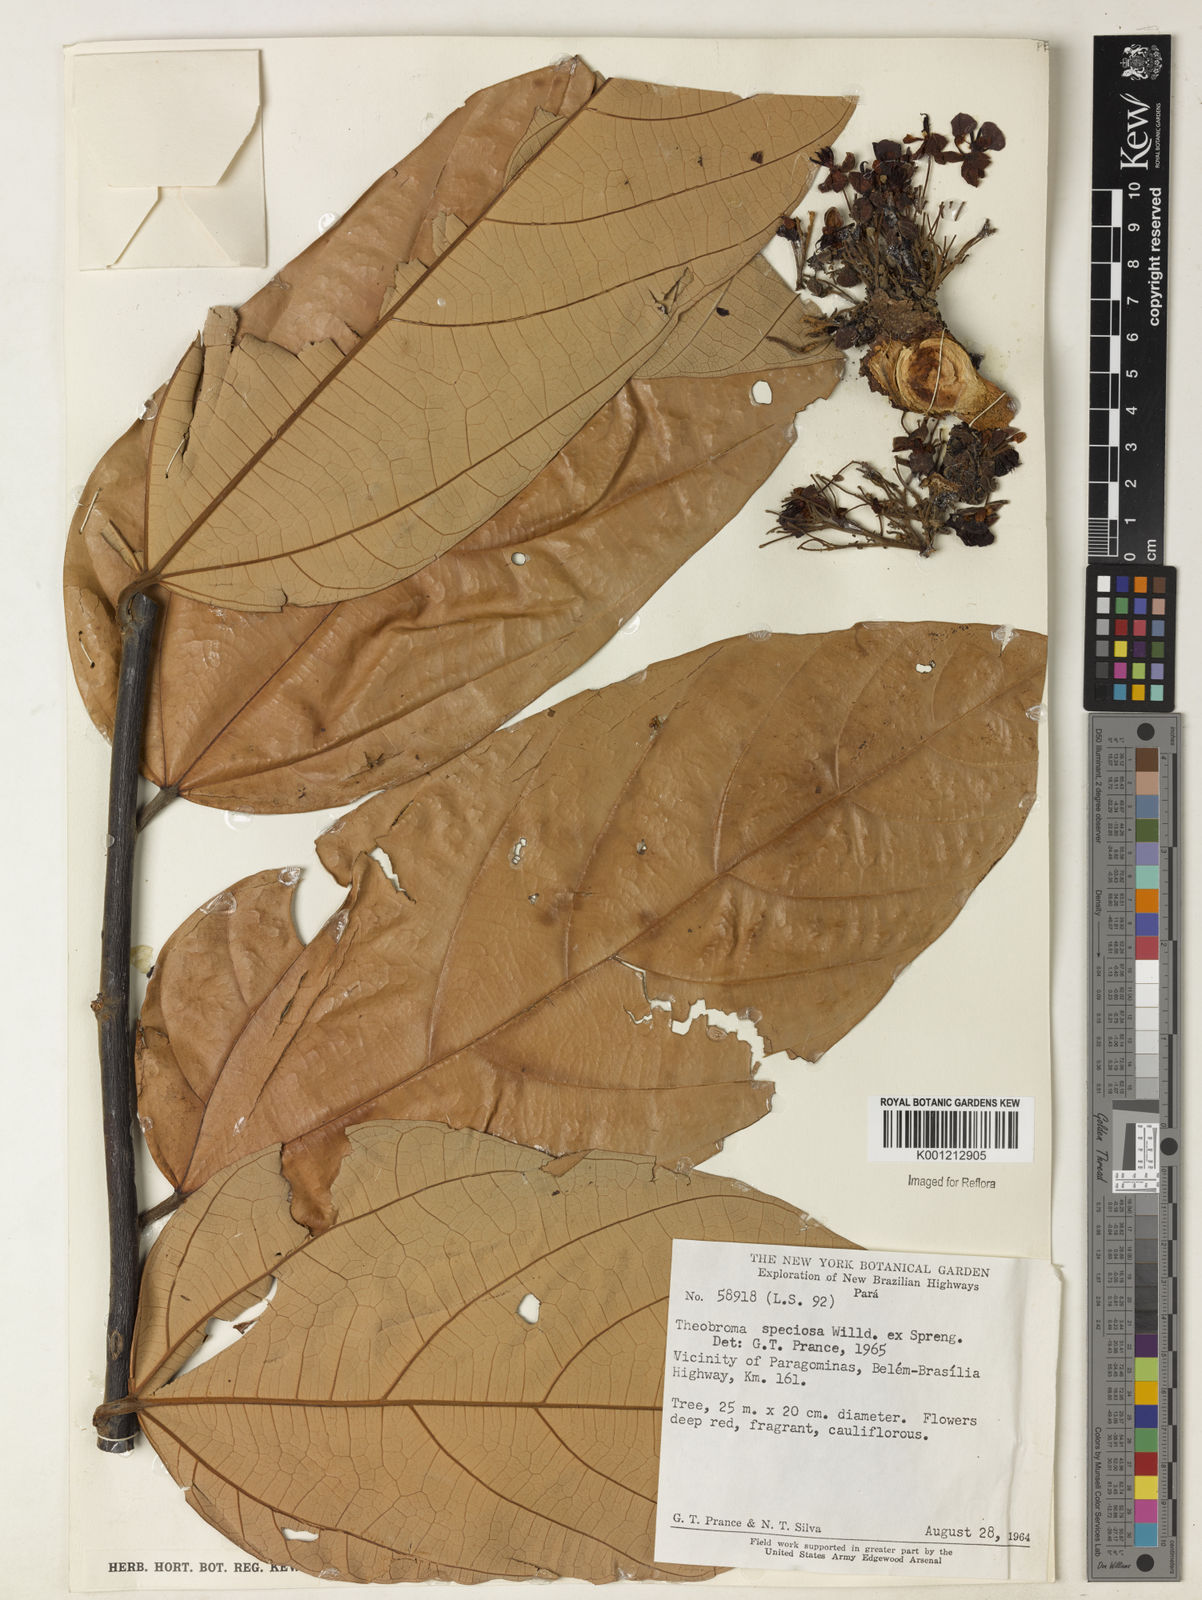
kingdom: Plantae
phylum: Tracheophyta
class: Magnoliopsida
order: Malvales
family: Malvaceae
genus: Theobroma
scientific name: Theobroma speciosum
